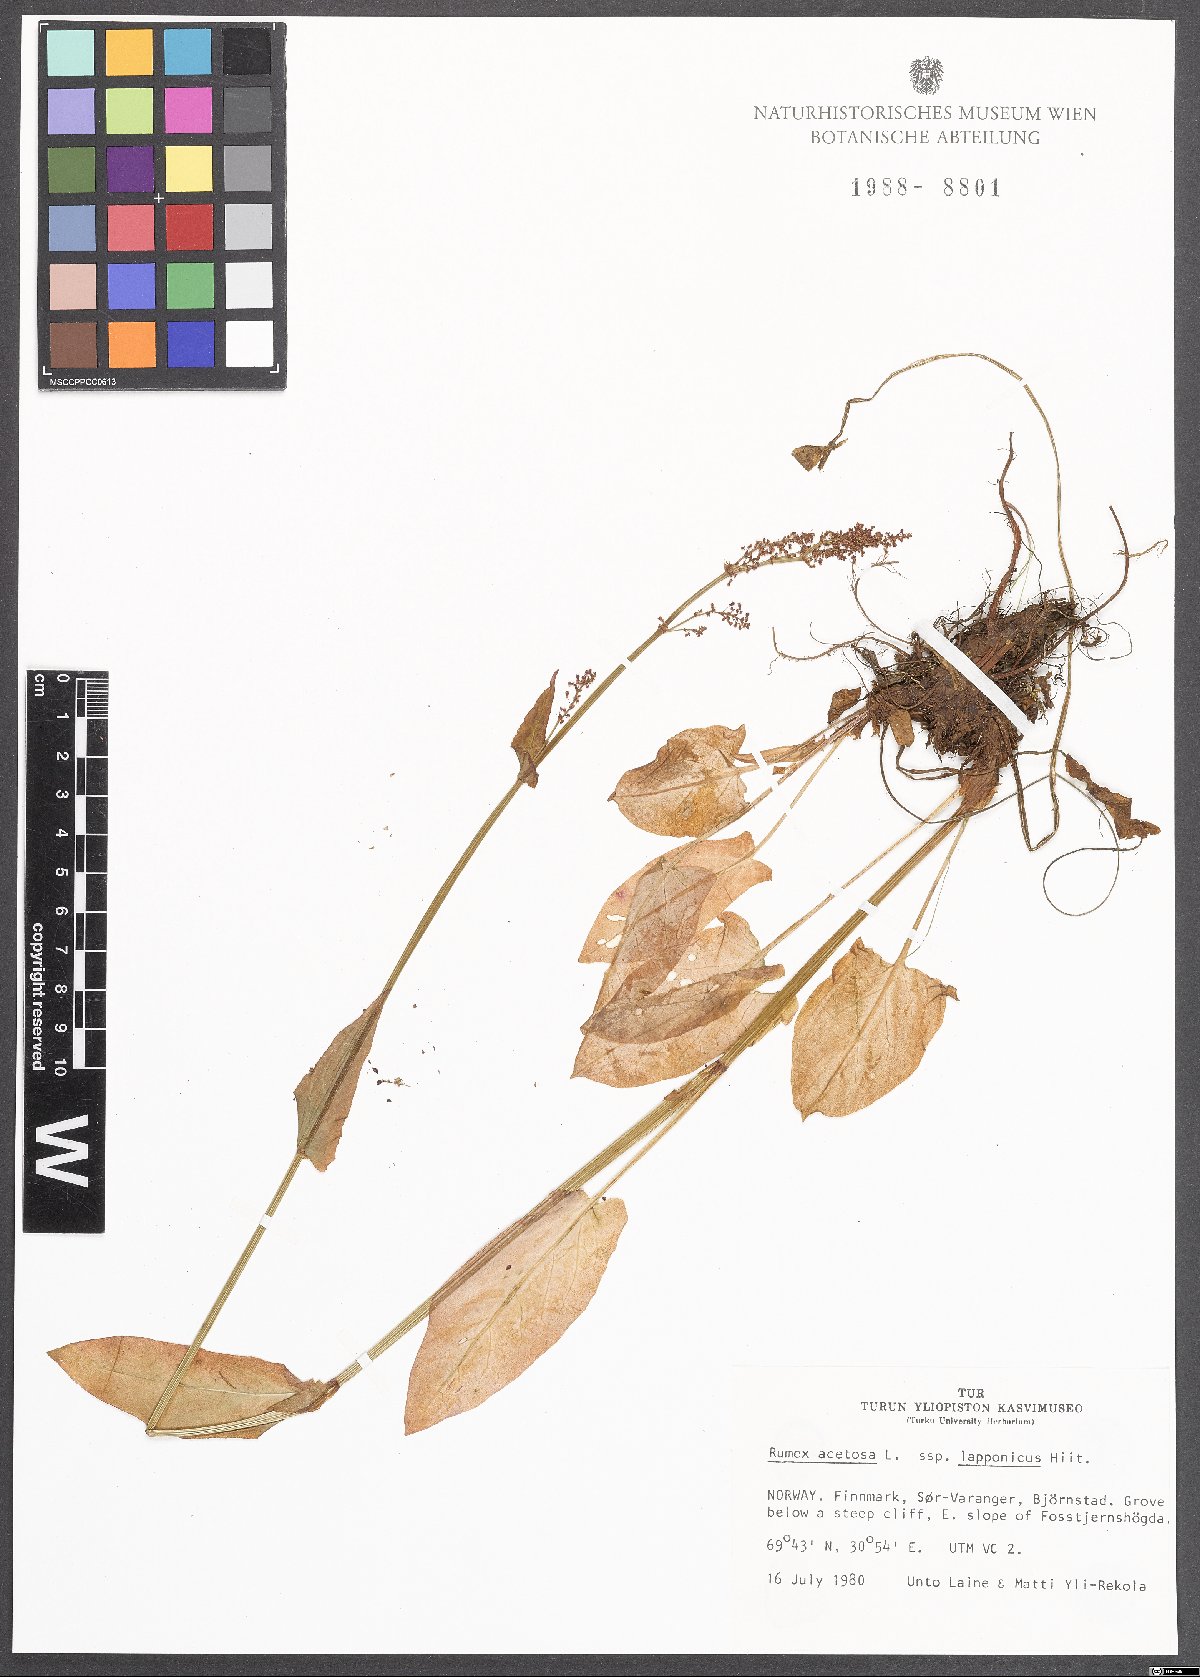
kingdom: Plantae
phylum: Tracheophyta
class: Magnoliopsida
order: Caryophyllales
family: Polygonaceae
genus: Rumex
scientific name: Rumex acetosa
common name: Garden sorrel
